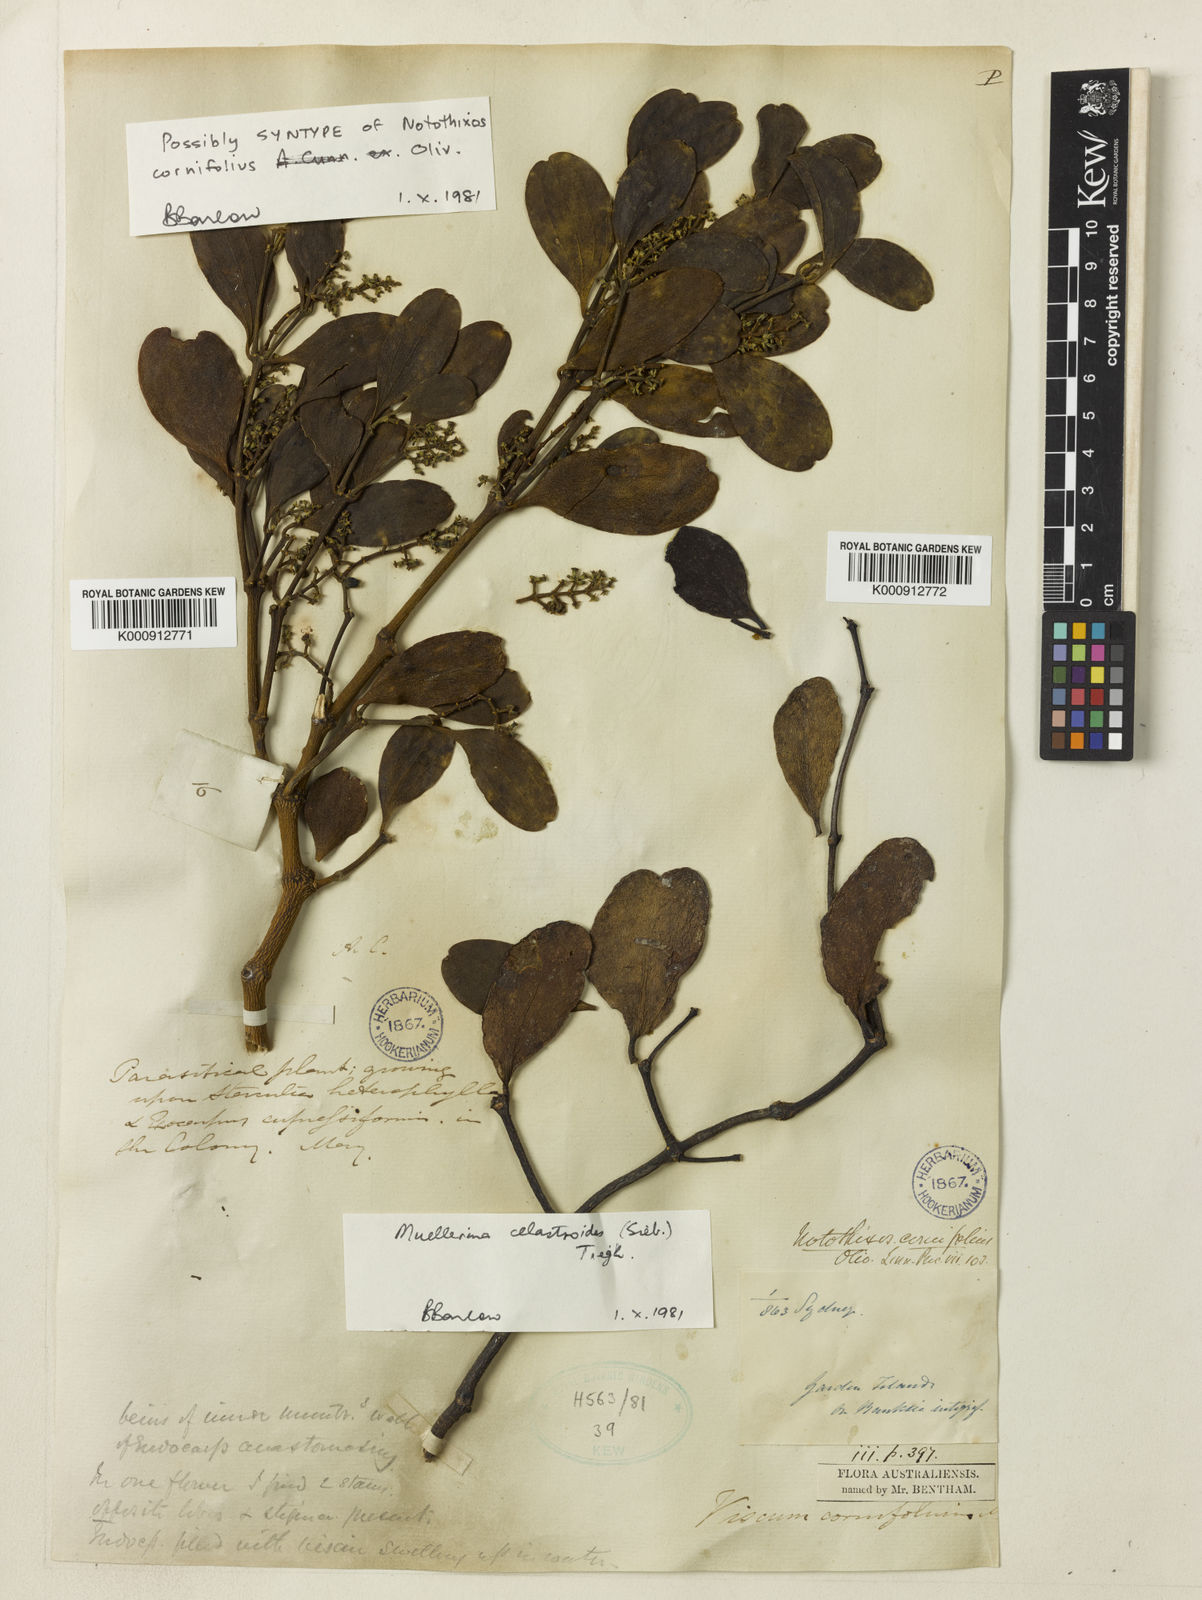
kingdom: Plantae
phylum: Tracheophyta
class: Magnoliopsida
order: Santalales
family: Viscaceae
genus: Notothixos
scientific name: Notothixos cornifolius
